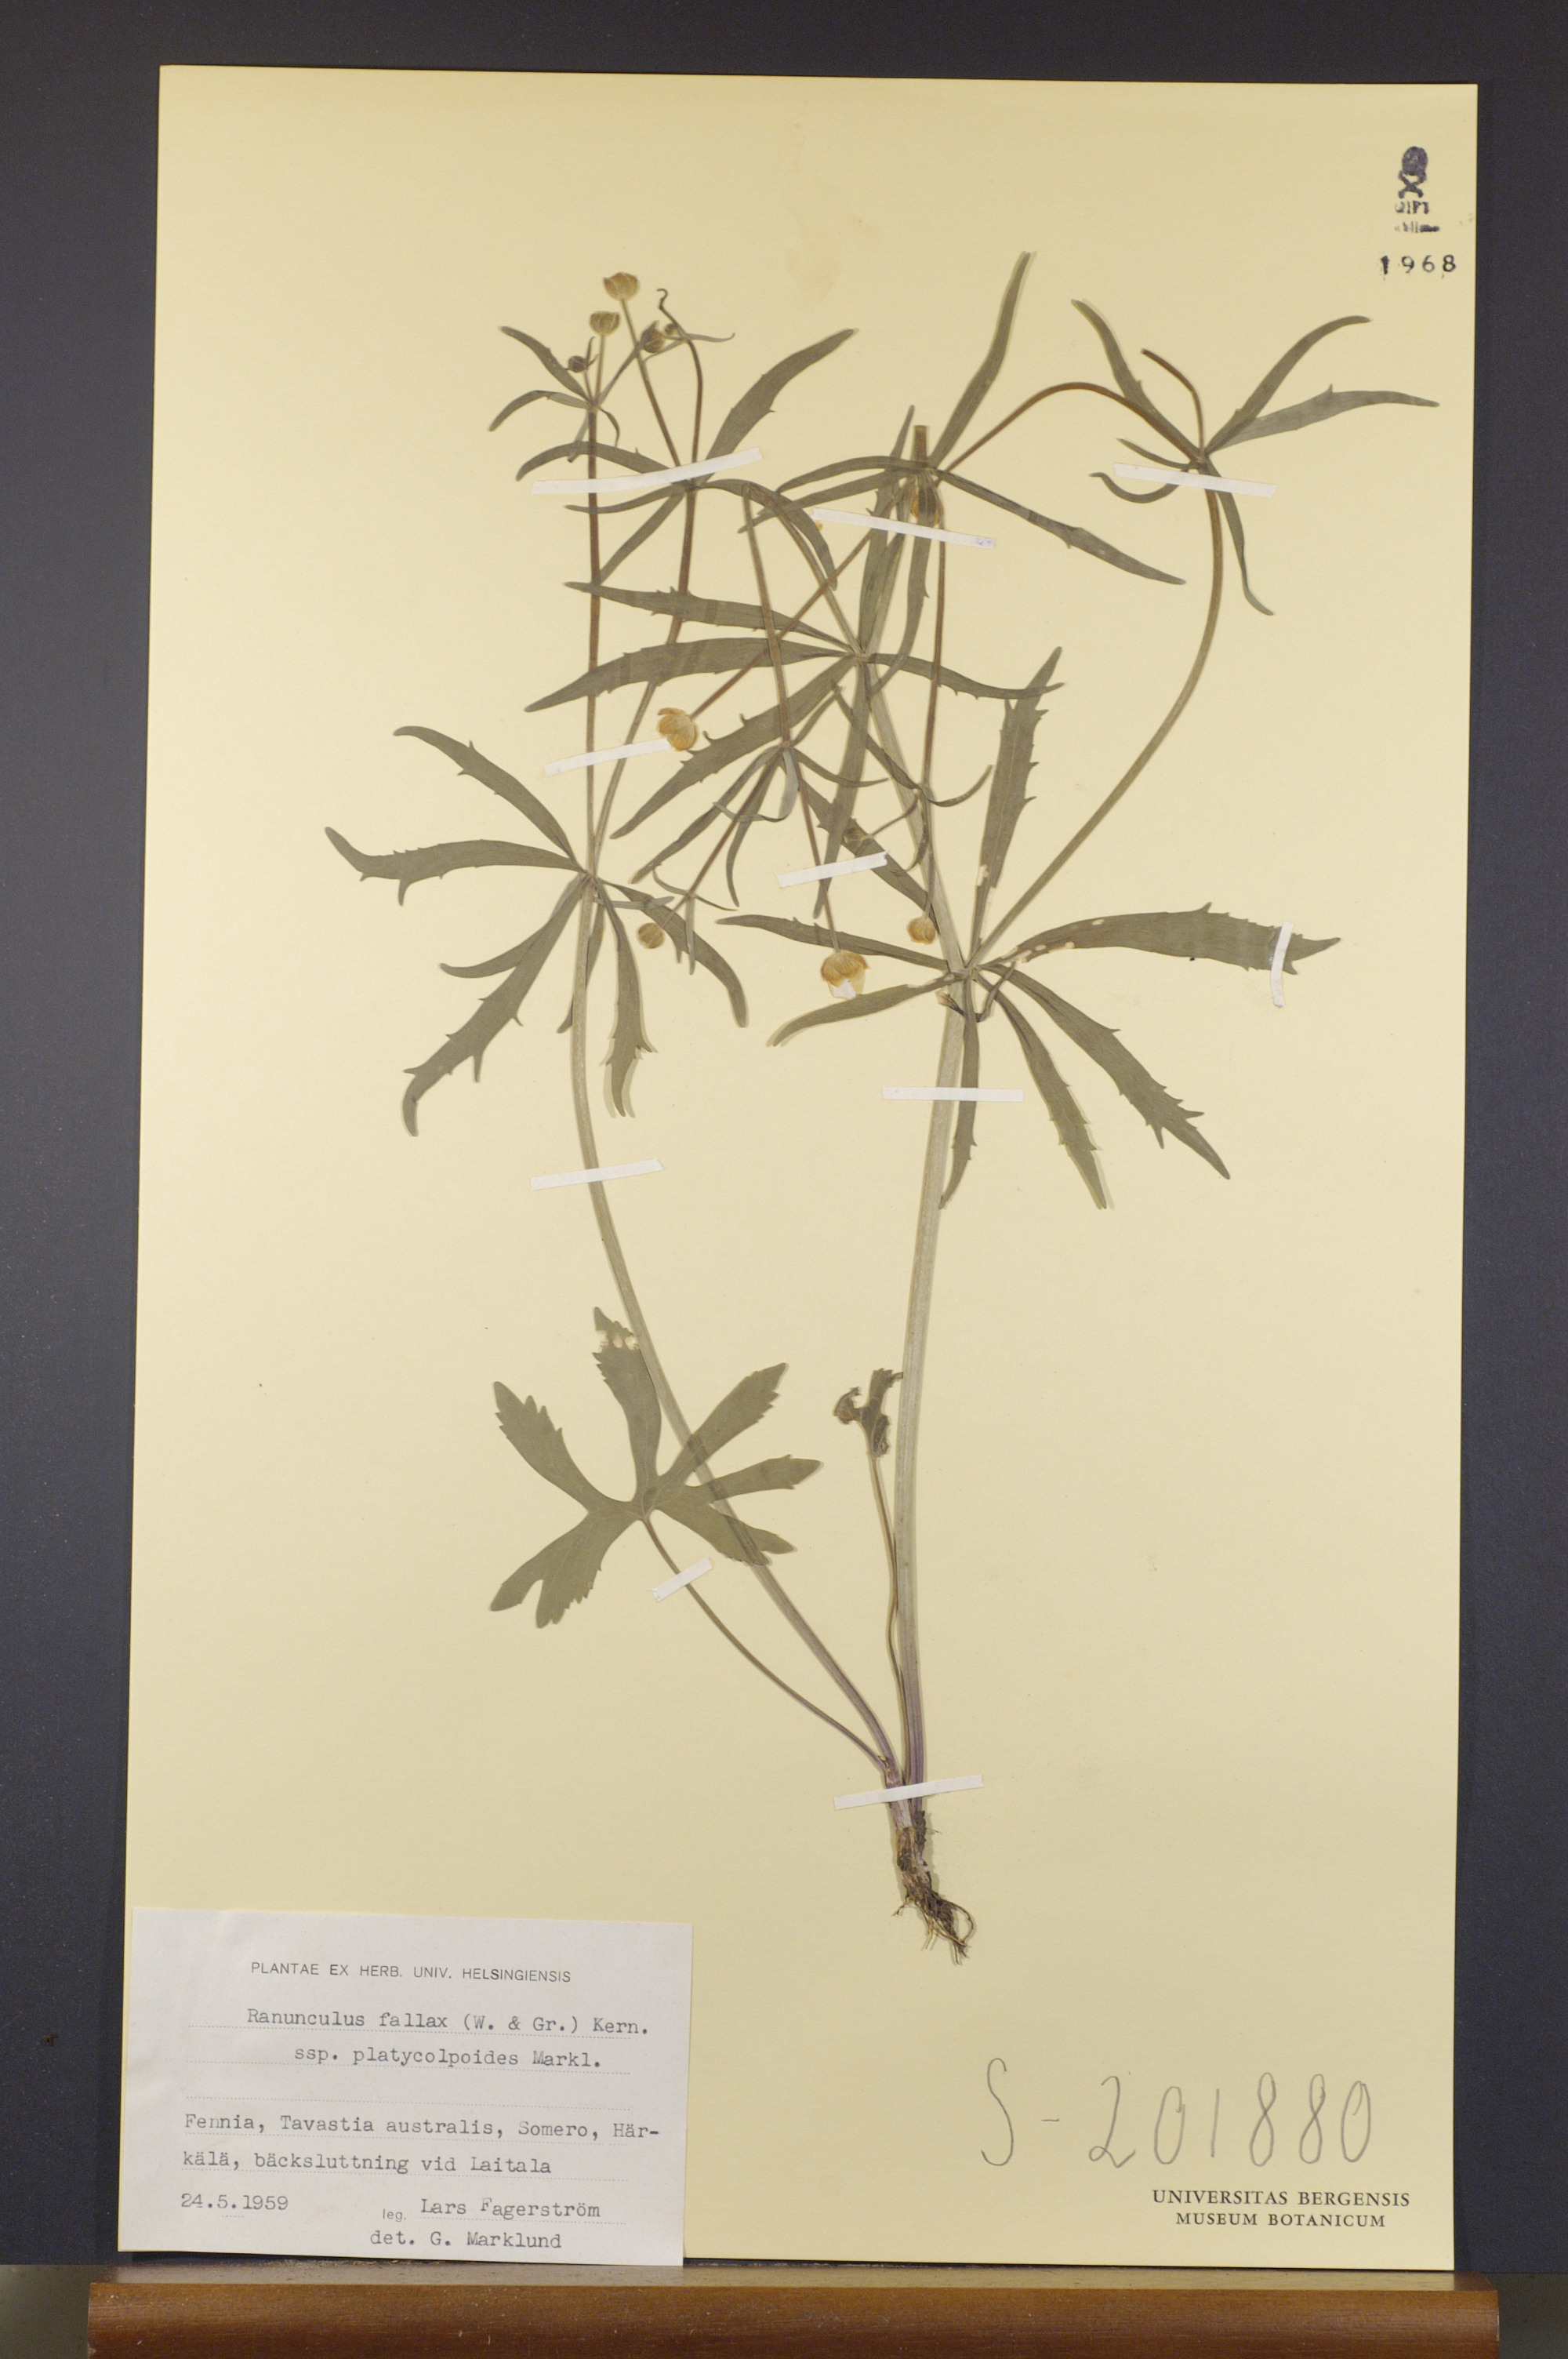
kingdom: Plantae
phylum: Tracheophyta
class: Magnoliopsida
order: Ranunculales
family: Ranunculaceae
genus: Ranunculus
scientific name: Ranunculus platycolpoides
